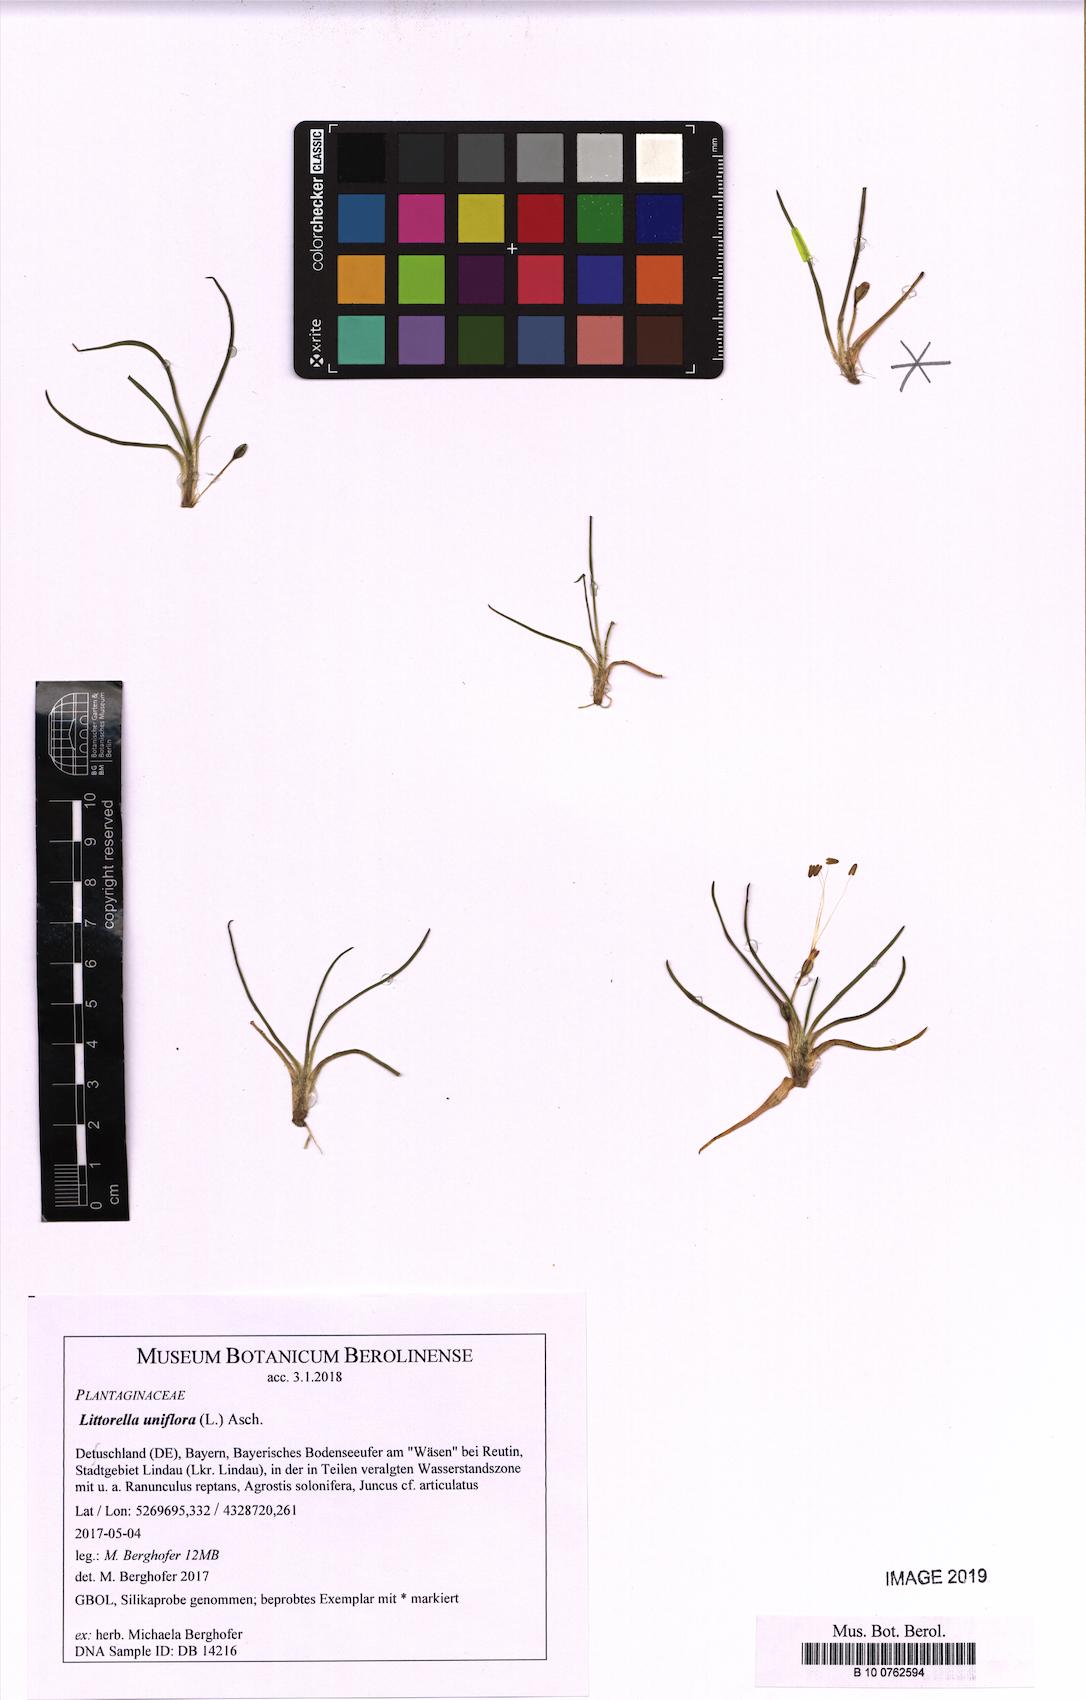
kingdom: Plantae
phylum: Tracheophyta
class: Magnoliopsida
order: Lamiales
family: Plantaginaceae
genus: Littorella
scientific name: Littorella uniflora
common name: Shoreweed
